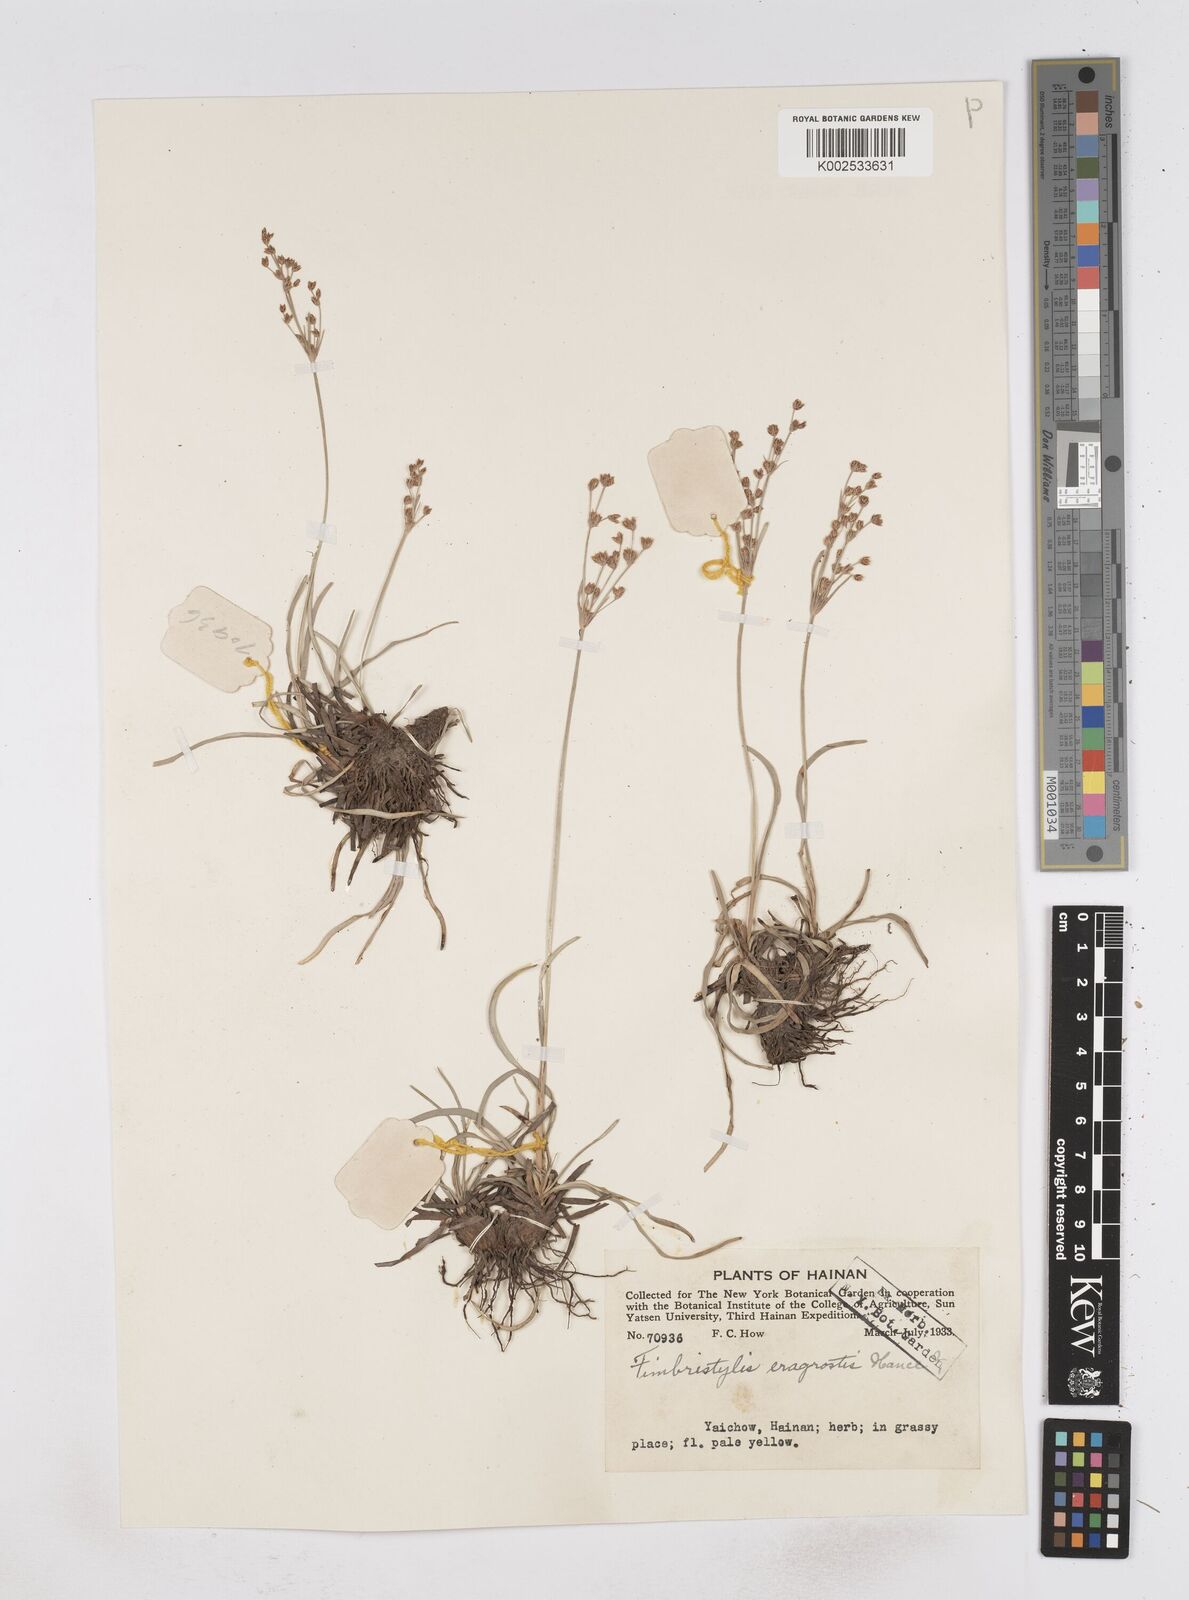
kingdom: Plantae
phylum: Tracheophyta
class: Liliopsida
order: Poales
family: Cyperaceae
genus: Fimbristylis
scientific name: Fimbristylis eragrostis
